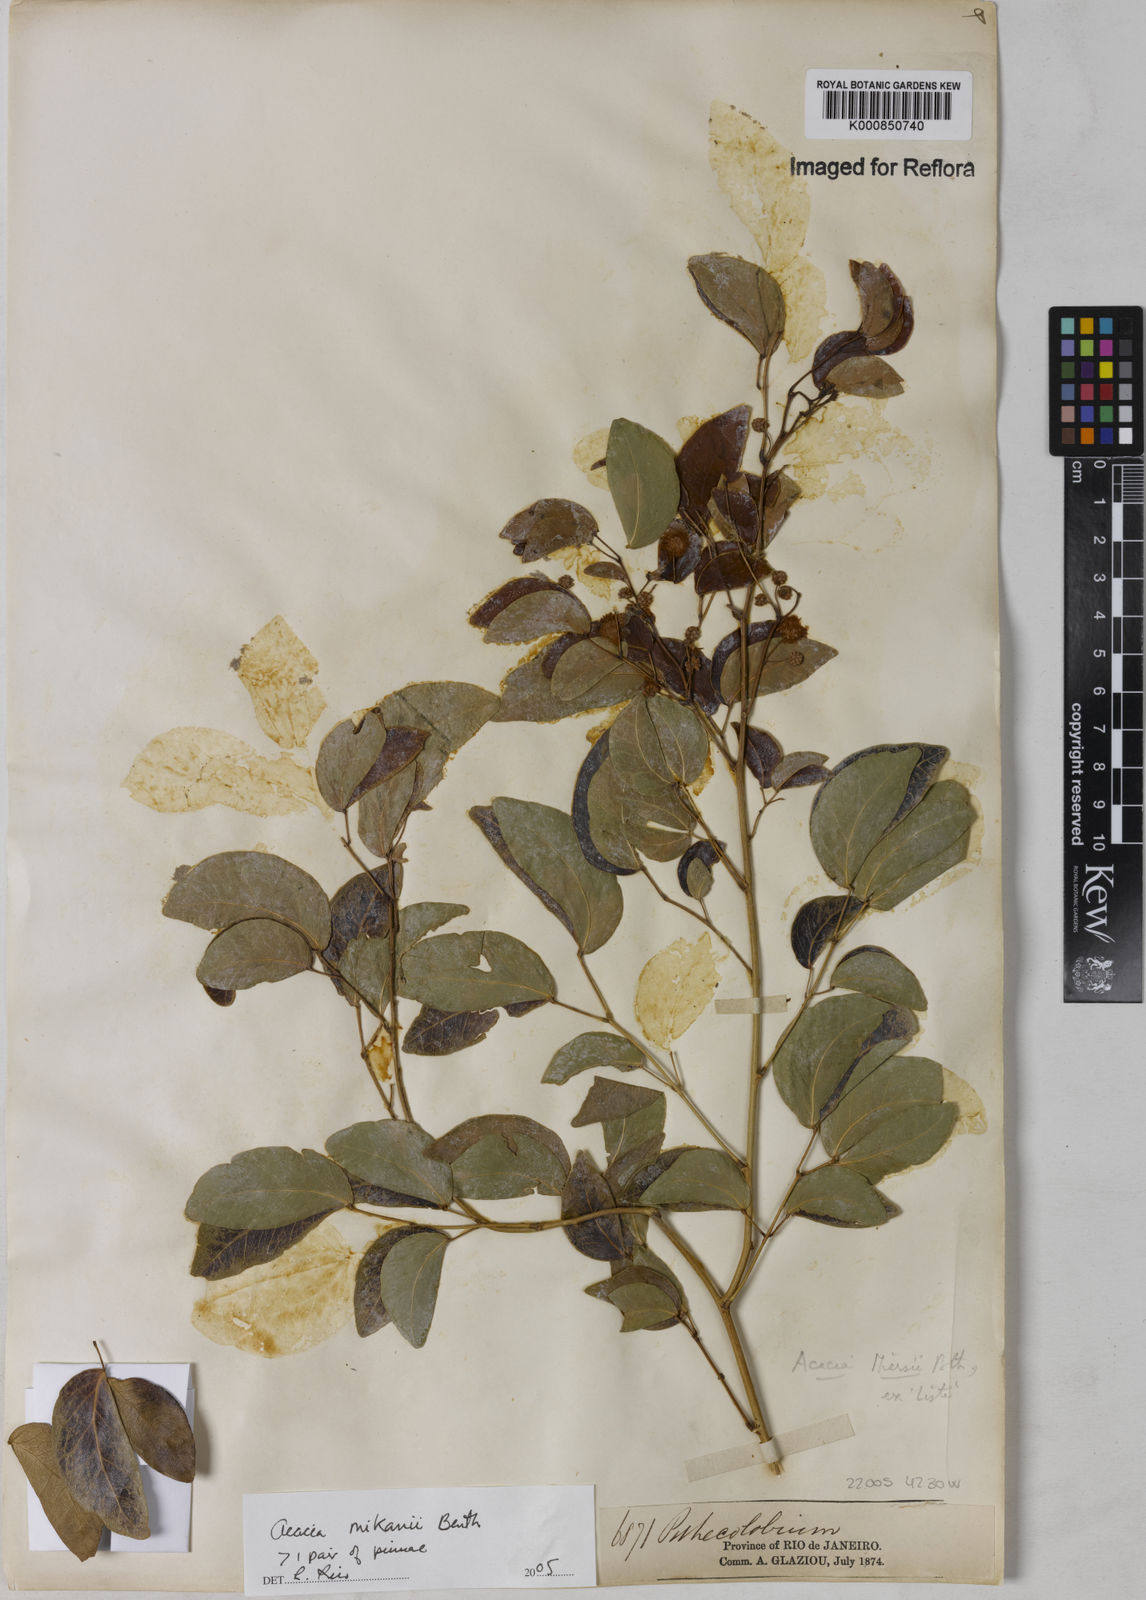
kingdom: Plantae
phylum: Tracheophyta
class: Magnoliopsida
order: Fabales
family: Fabaceae
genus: Senegalia
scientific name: Senegalia mikanii
